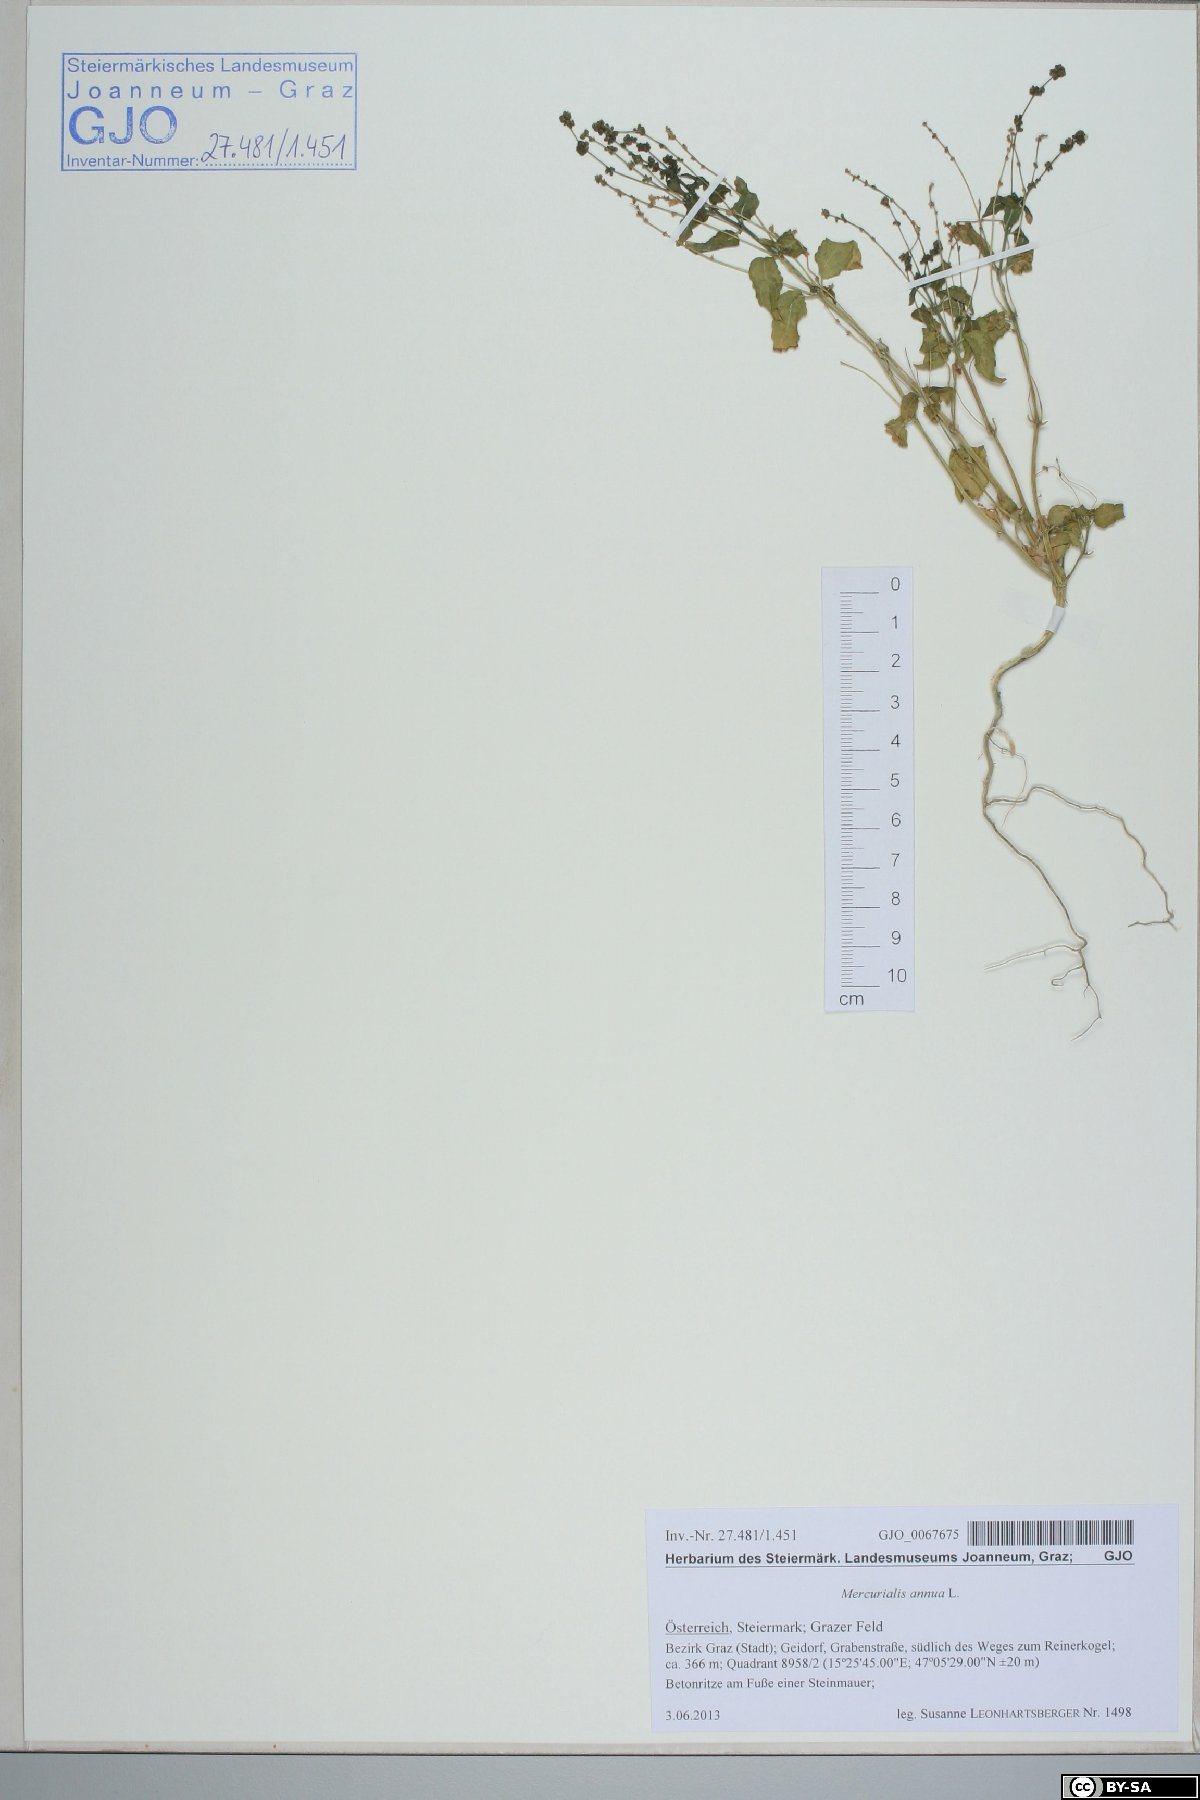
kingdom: Plantae
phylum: Tracheophyta
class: Magnoliopsida
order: Malpighiales
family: Euphorbiaceae
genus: Mercurialis
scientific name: Mercurialis annua
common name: Annual mercury
